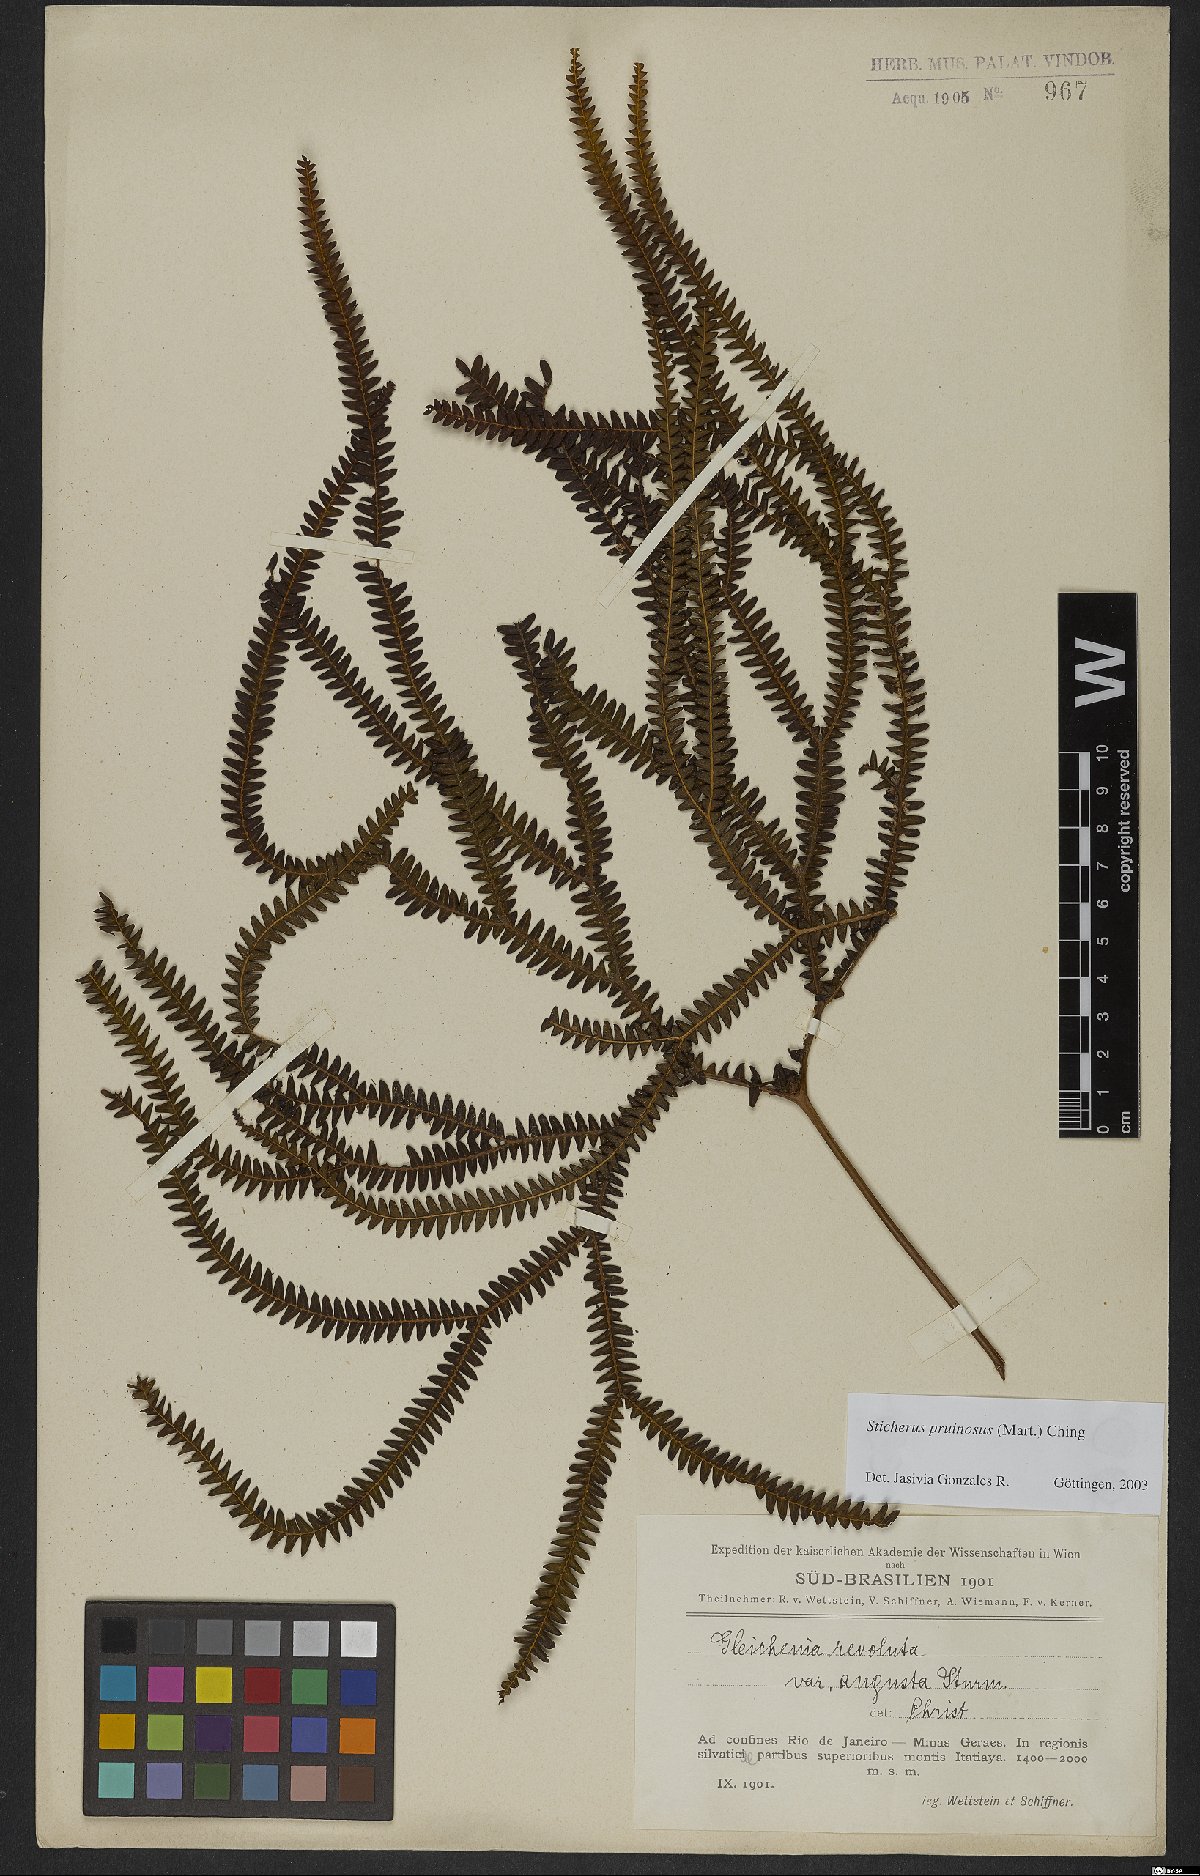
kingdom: Plantae
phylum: Tracheophyta
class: Polypodiopsida
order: Gleicheniales
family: Gleicheniaceae
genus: Sticherus
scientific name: Sticherus pruinosus
